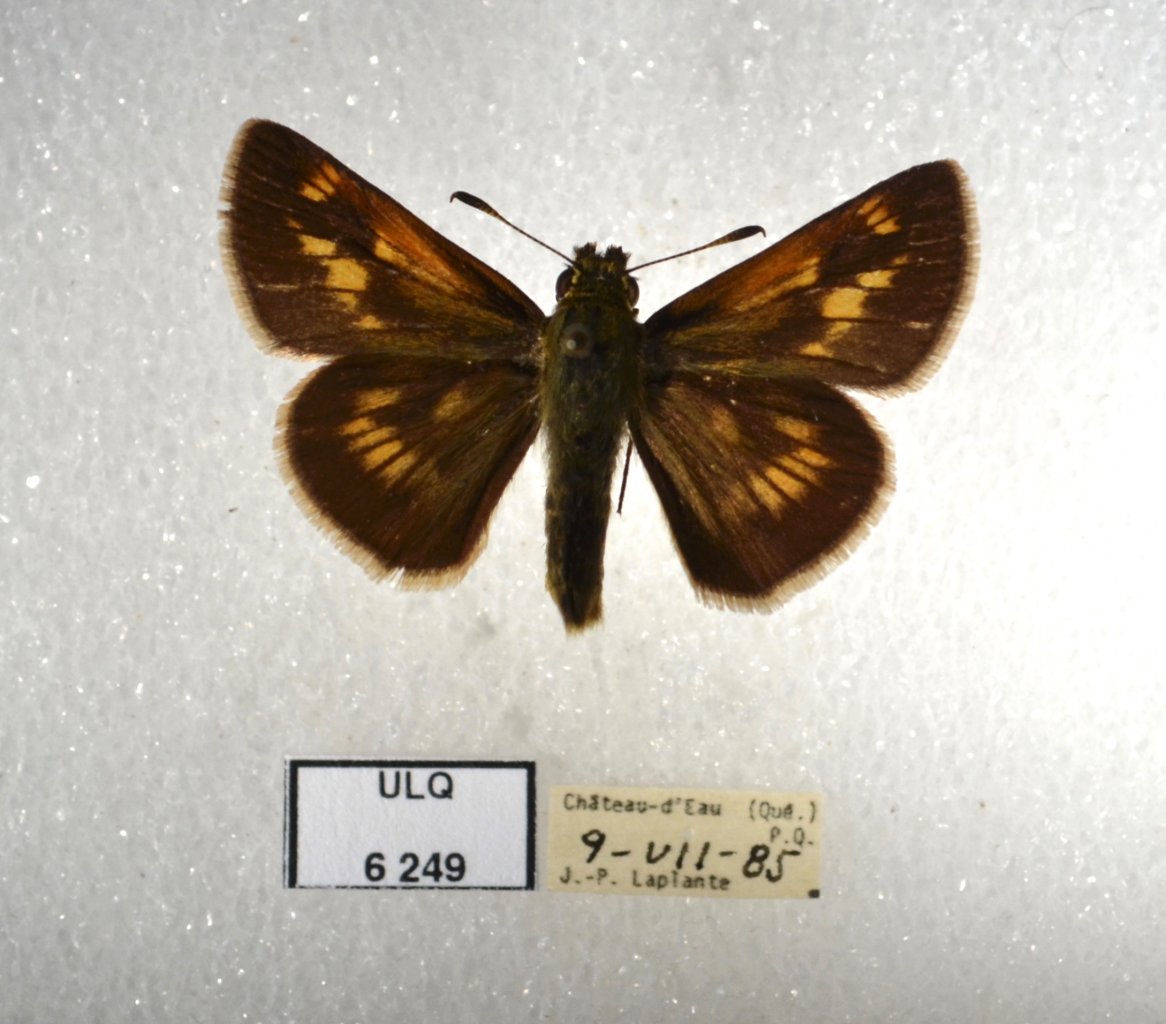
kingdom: Animalia
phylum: Arthropoda
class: Insecta
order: Lepidoptera
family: Hesperiidae
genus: Polites
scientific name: Polites
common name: Long Dash Skipper
